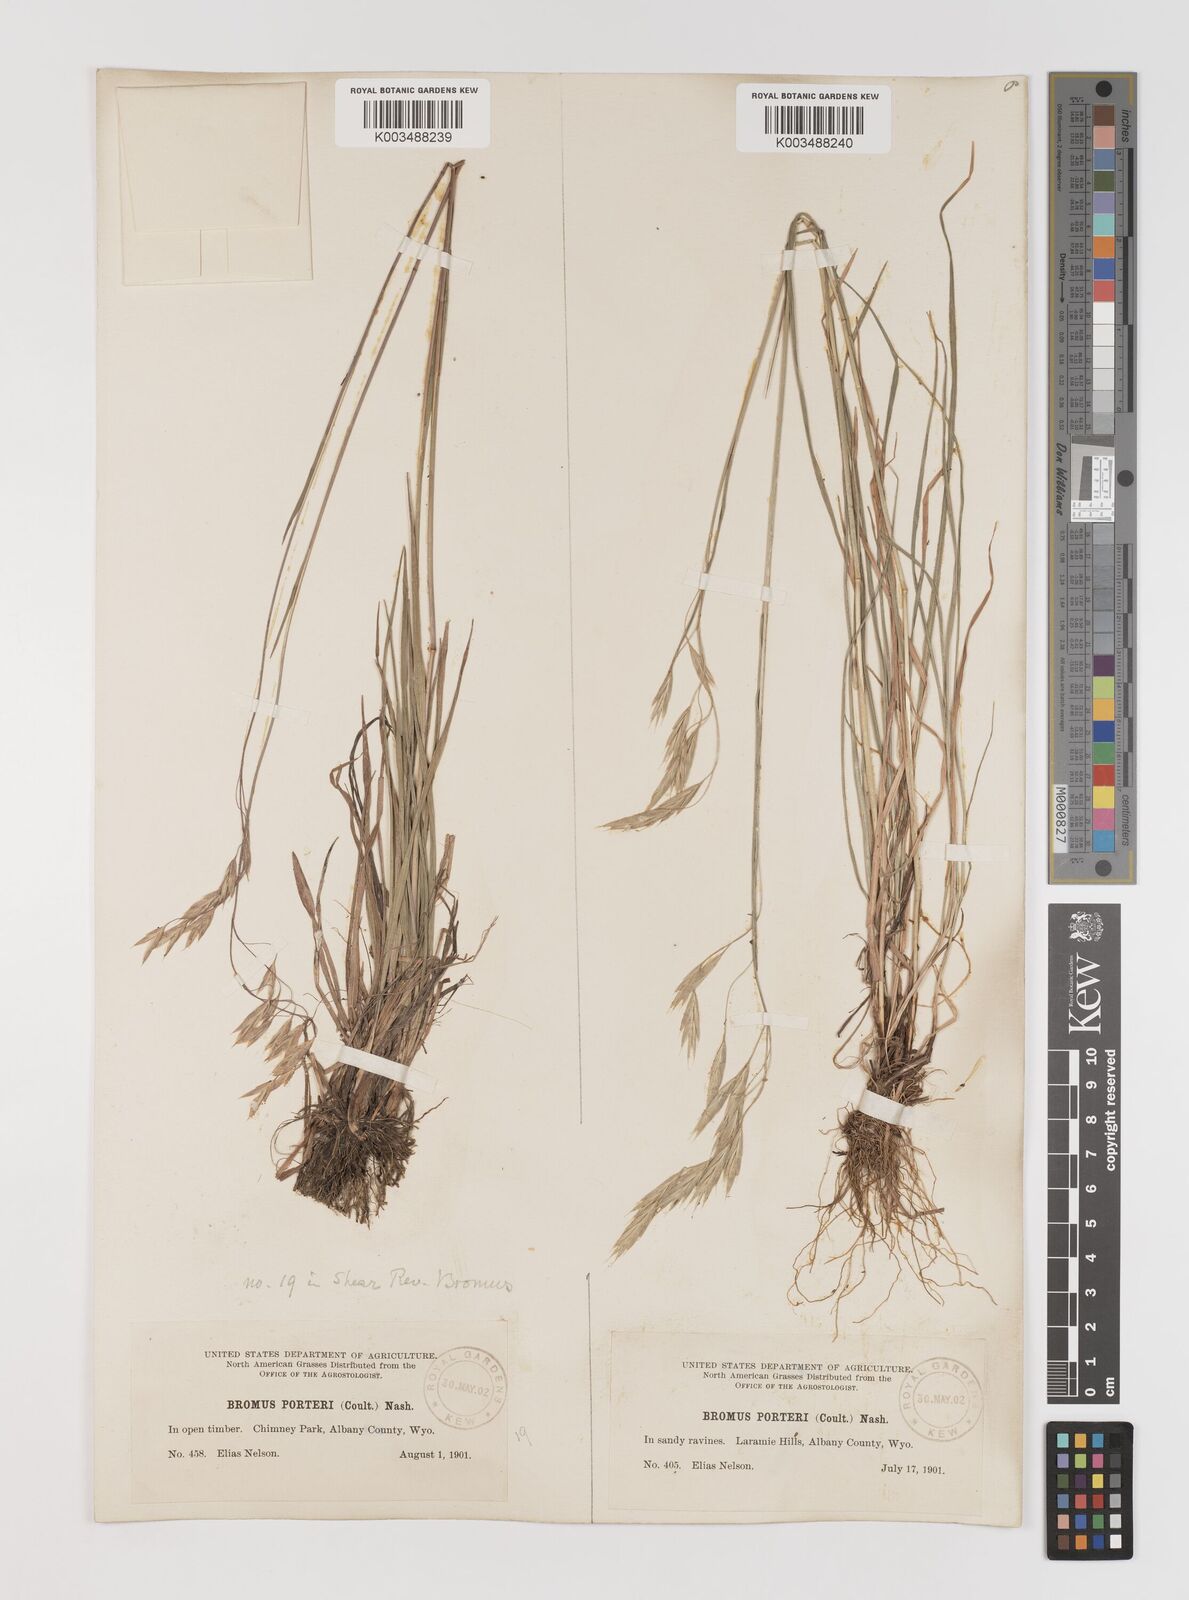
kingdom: Plantae
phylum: Tracheophyta
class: Liliopsida
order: Poales
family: Poaceae
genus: Bromus
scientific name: Bromus porteri
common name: Nodding brome
